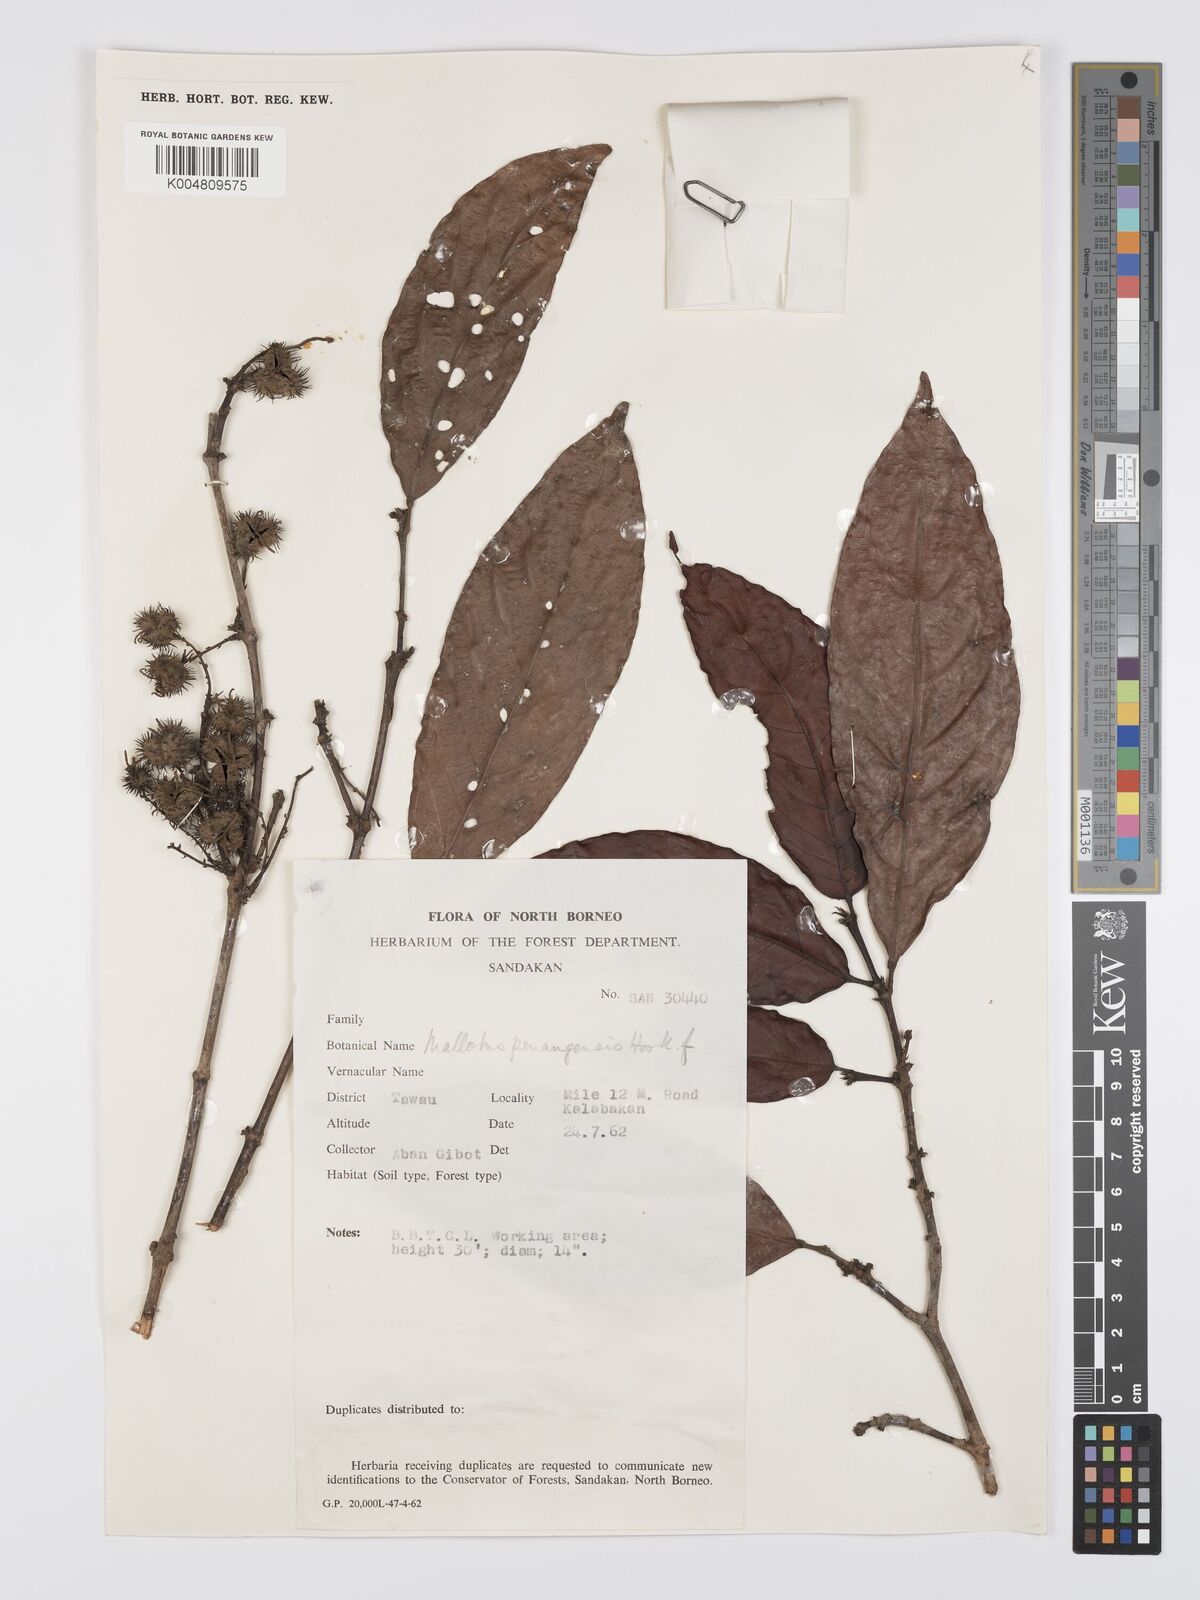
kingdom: Plantae
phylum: Tracheophyta
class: Magnoliopsida
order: Malpighiales
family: Euphorbiaceae
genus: Hancea
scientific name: Hancea penangensis
